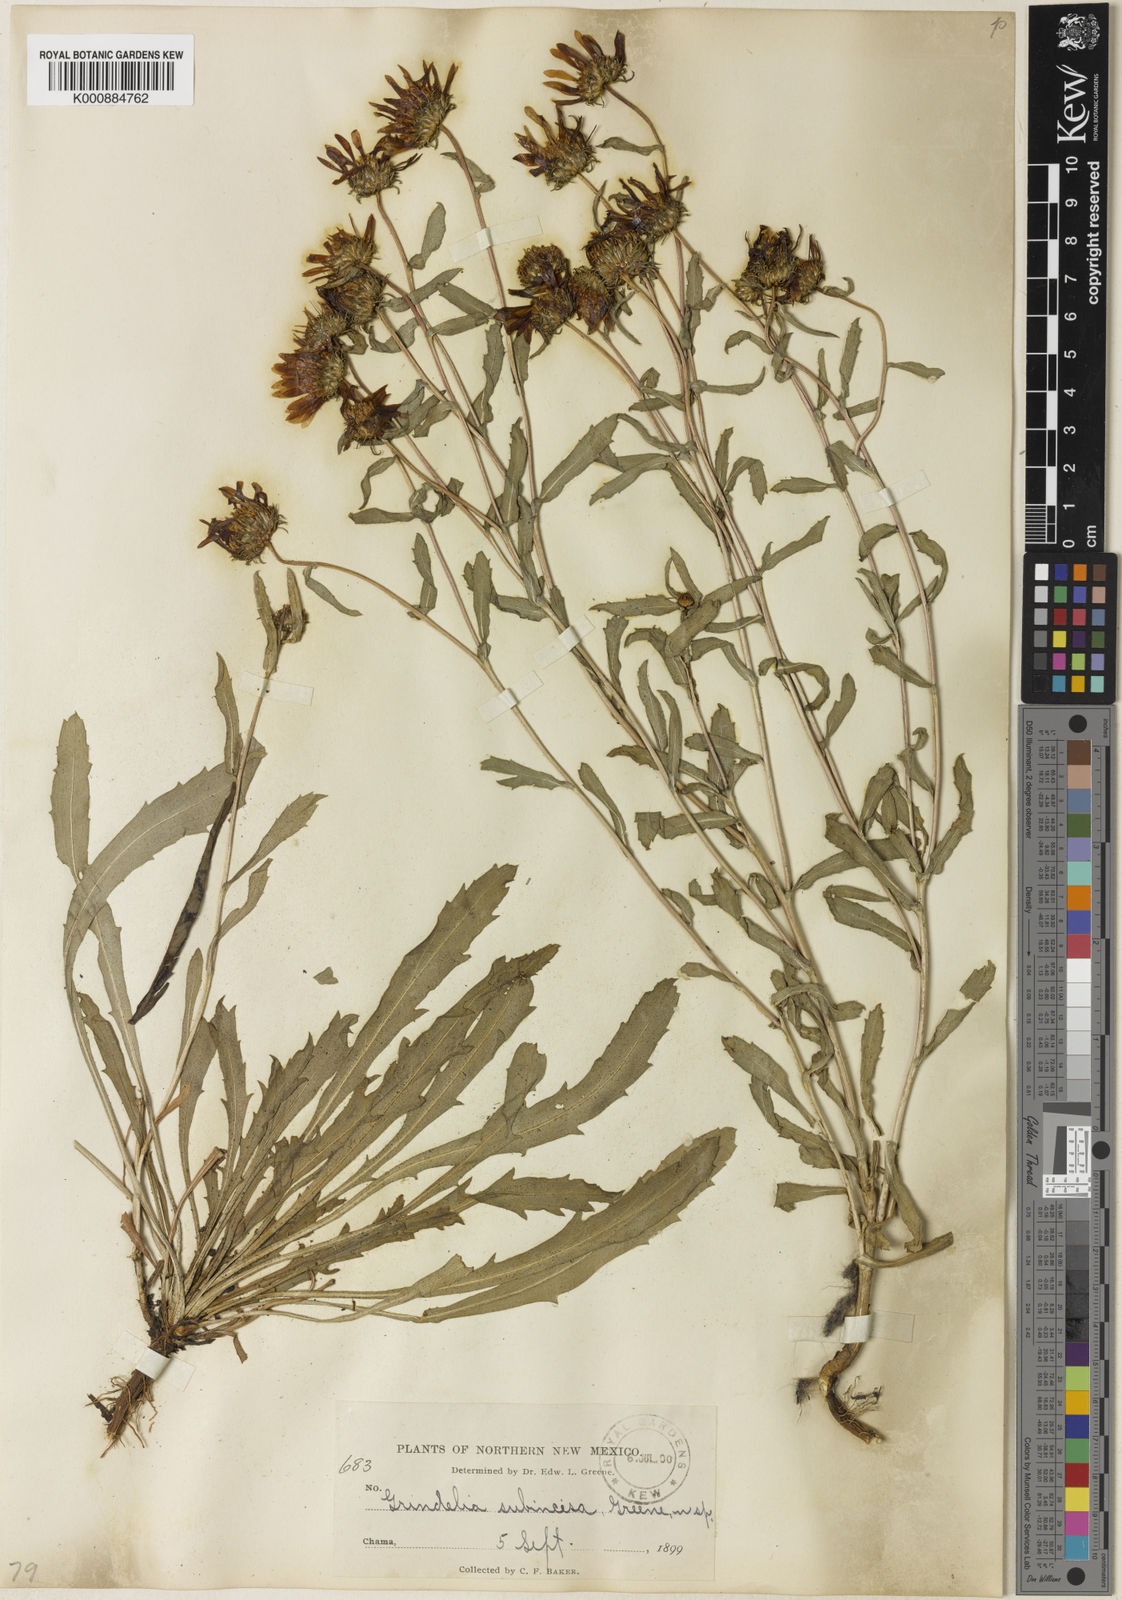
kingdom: Plantae
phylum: Tracheophyta
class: Magnoliopsida
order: Asterales
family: Asteraceae
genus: Grindelia
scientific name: Grindelia decumbens
